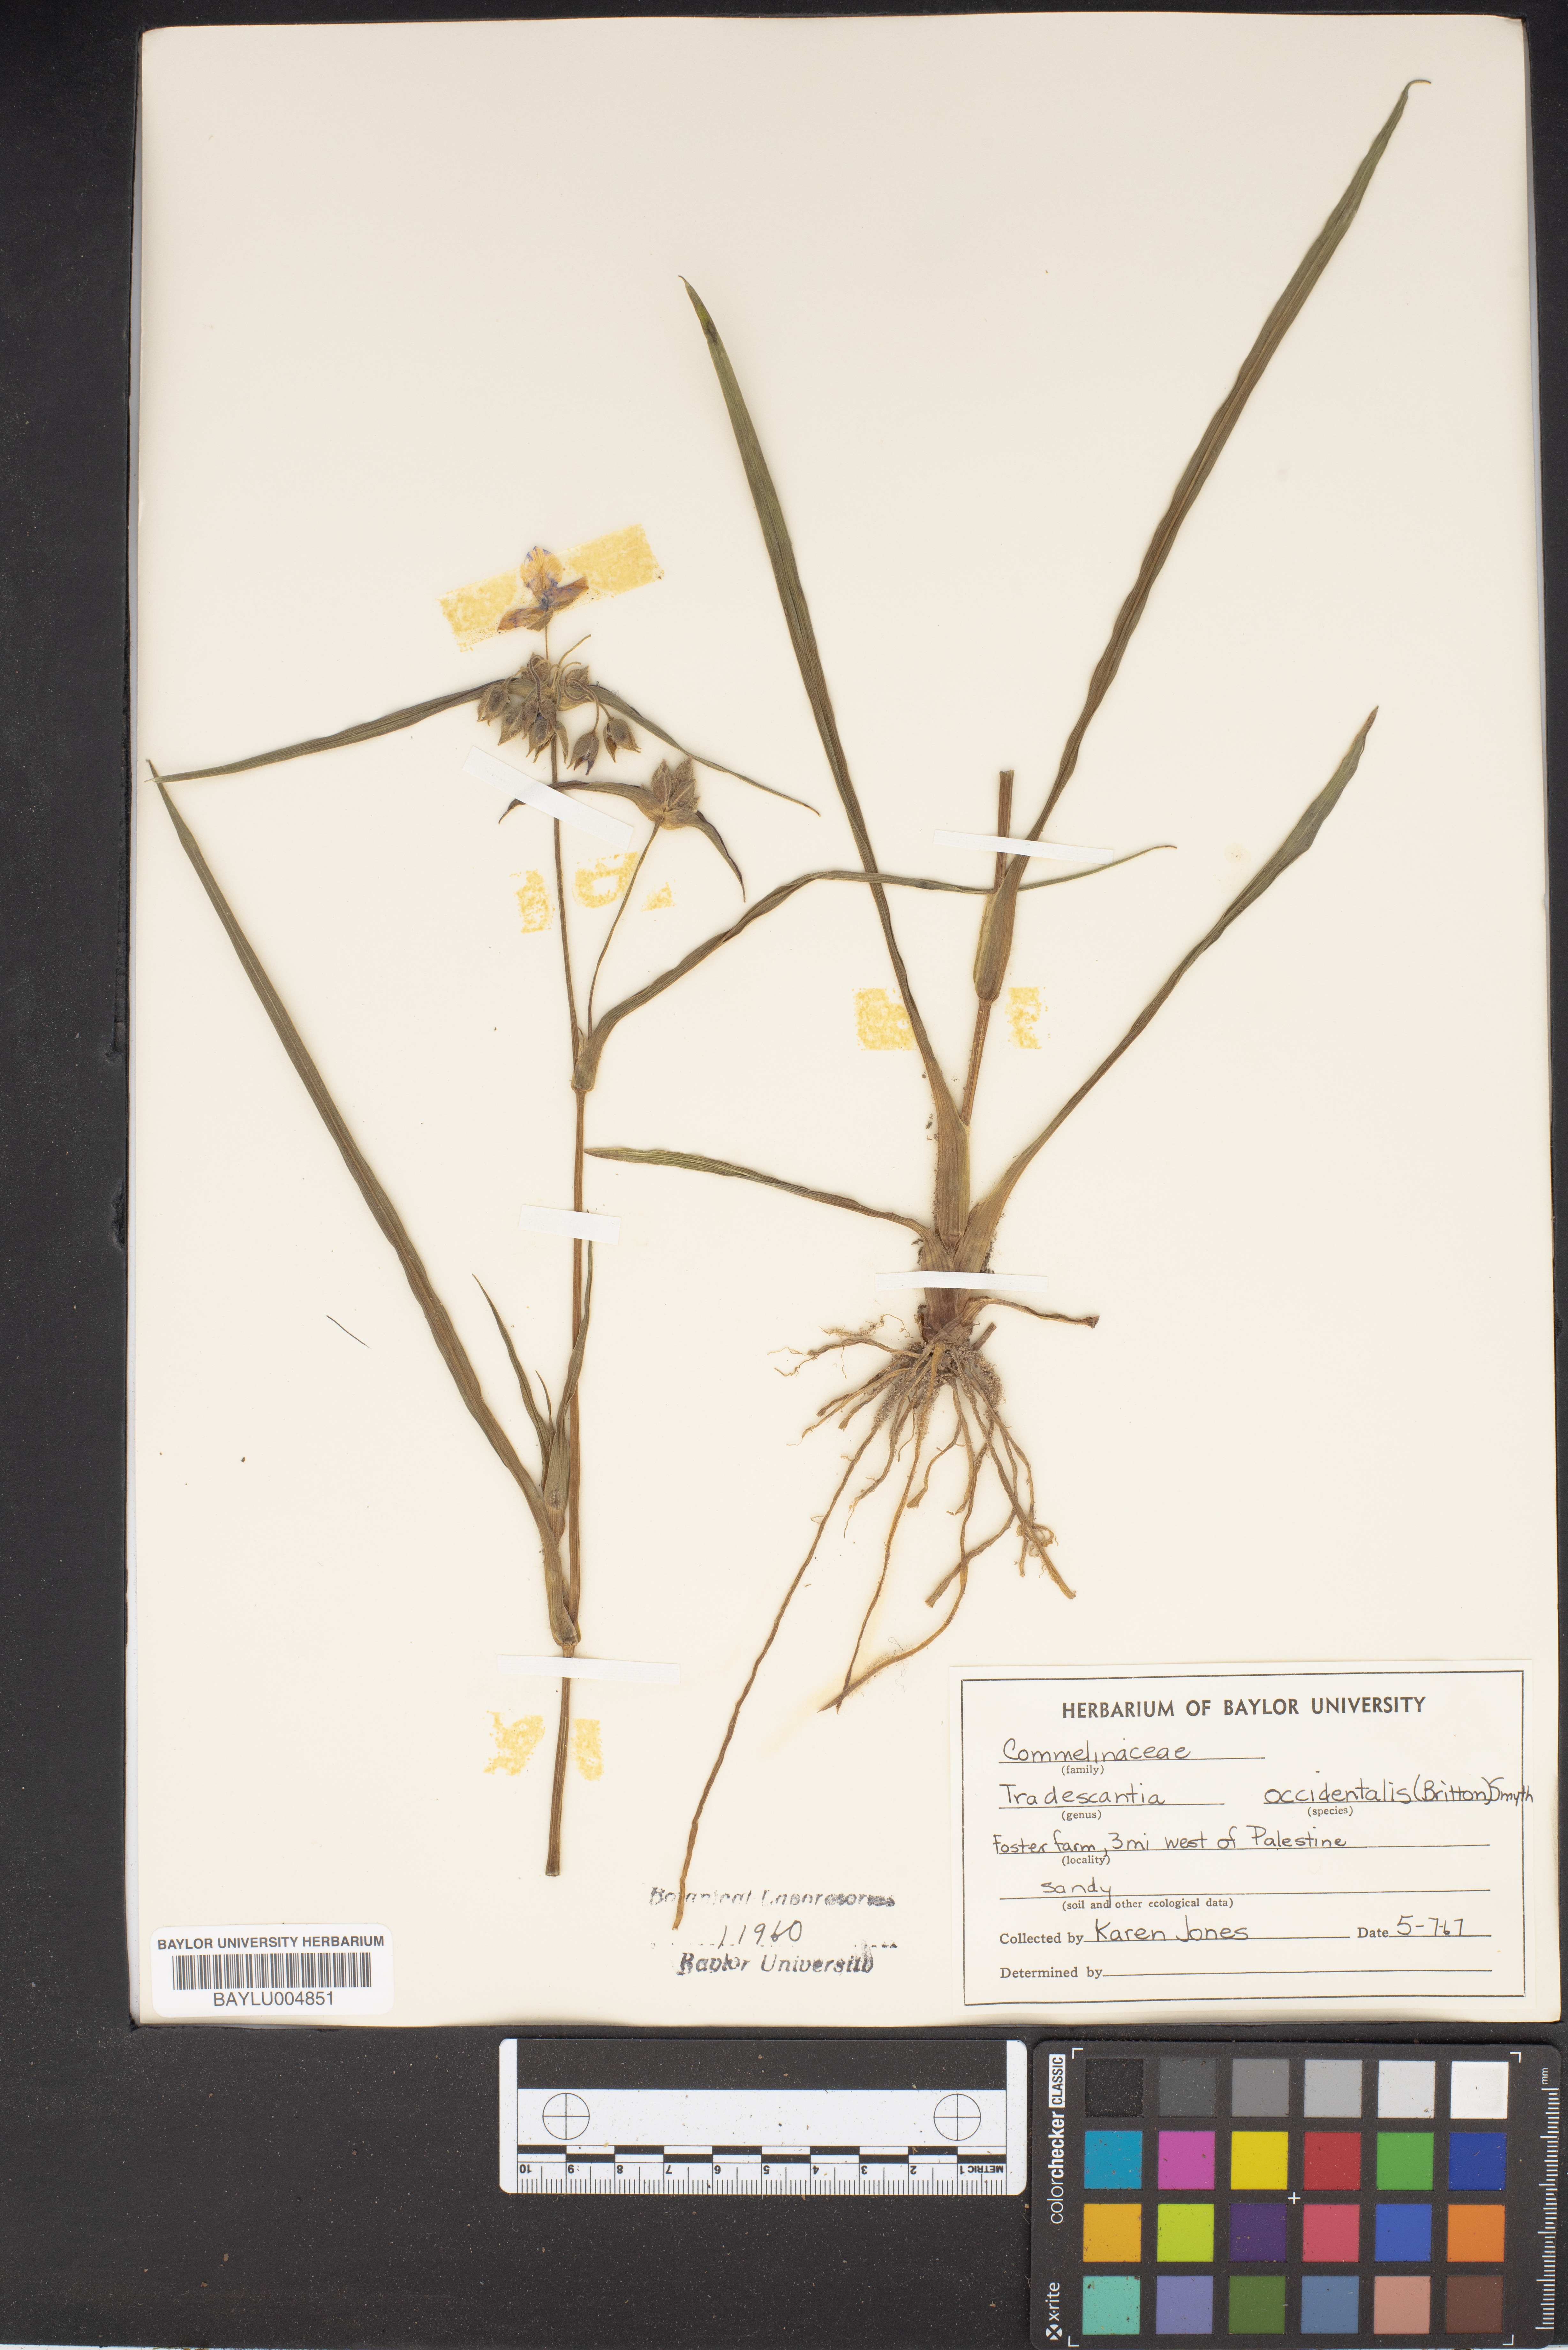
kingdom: Plantae
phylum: Tracheophyta
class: Liliopsida
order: Commelinales
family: Commelinaceae
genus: Tradescantia
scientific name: Tradescantia occidentalis
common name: Prairie spiderwort
